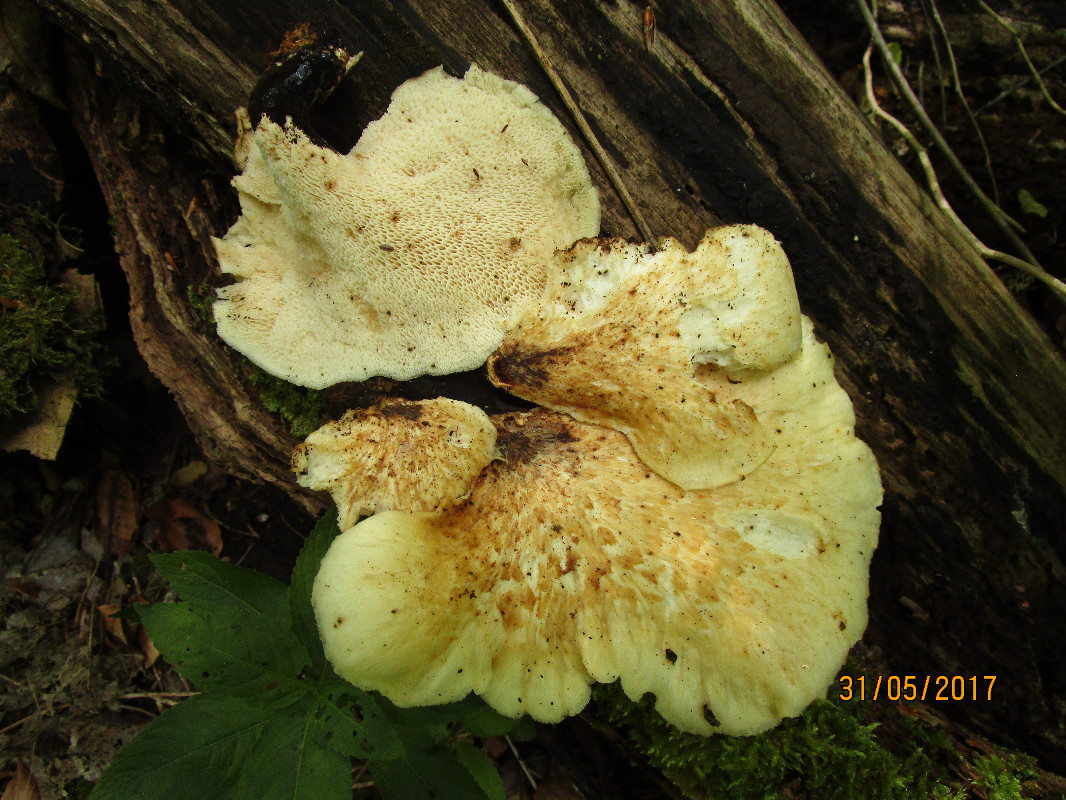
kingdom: Fungi
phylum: Basidiomycota
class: Agaricomycetes
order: Polyporales
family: Polyporaceae
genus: Cerioporus
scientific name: Cerioporus squamosus
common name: skællet stilkporesvamp
